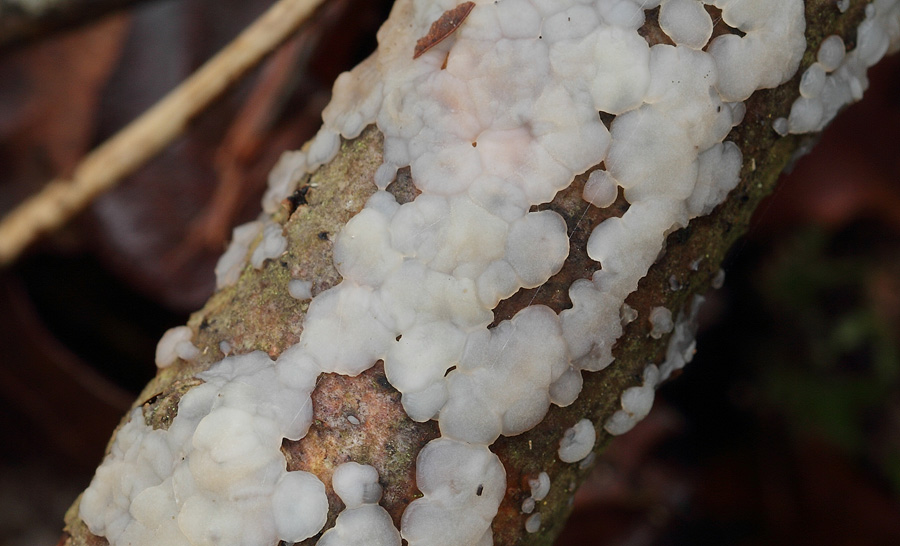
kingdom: Fungi
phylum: Basidiomycota
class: Agaricomycetes
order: Auriculariales
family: Auriculariaceae
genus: Exidia
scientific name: Exidia thuretiana
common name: hvidlig bævretop
